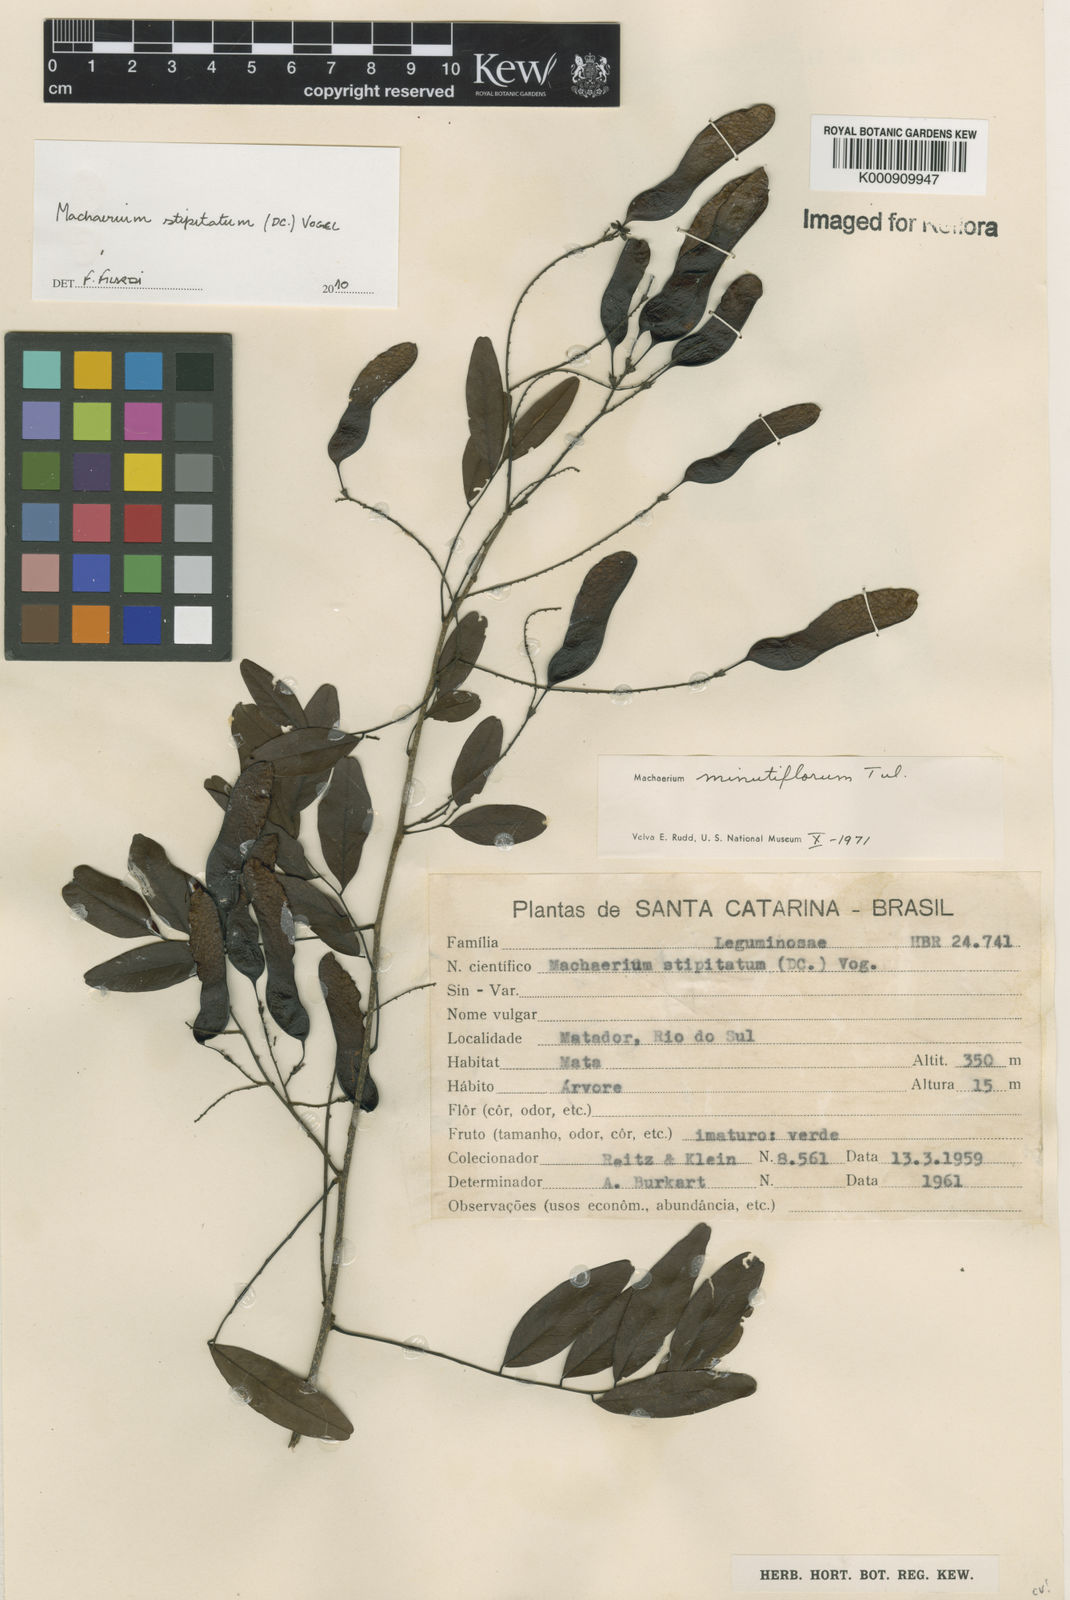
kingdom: Plantae
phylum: Tracheophyta
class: Magnoliopsida
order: Fabales
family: Fabaceae
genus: Machaerium
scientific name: Machaerium stipitatum
